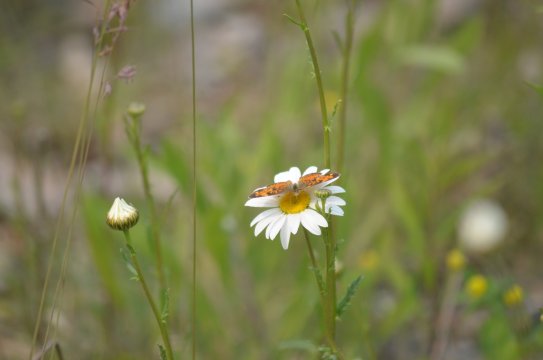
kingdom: Animalia
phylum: Arthropoda
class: Insecta
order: Lepidoptera
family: Nymphalidae
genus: Phyciodes
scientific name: Phyciodes tharos
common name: Northern Crescent
